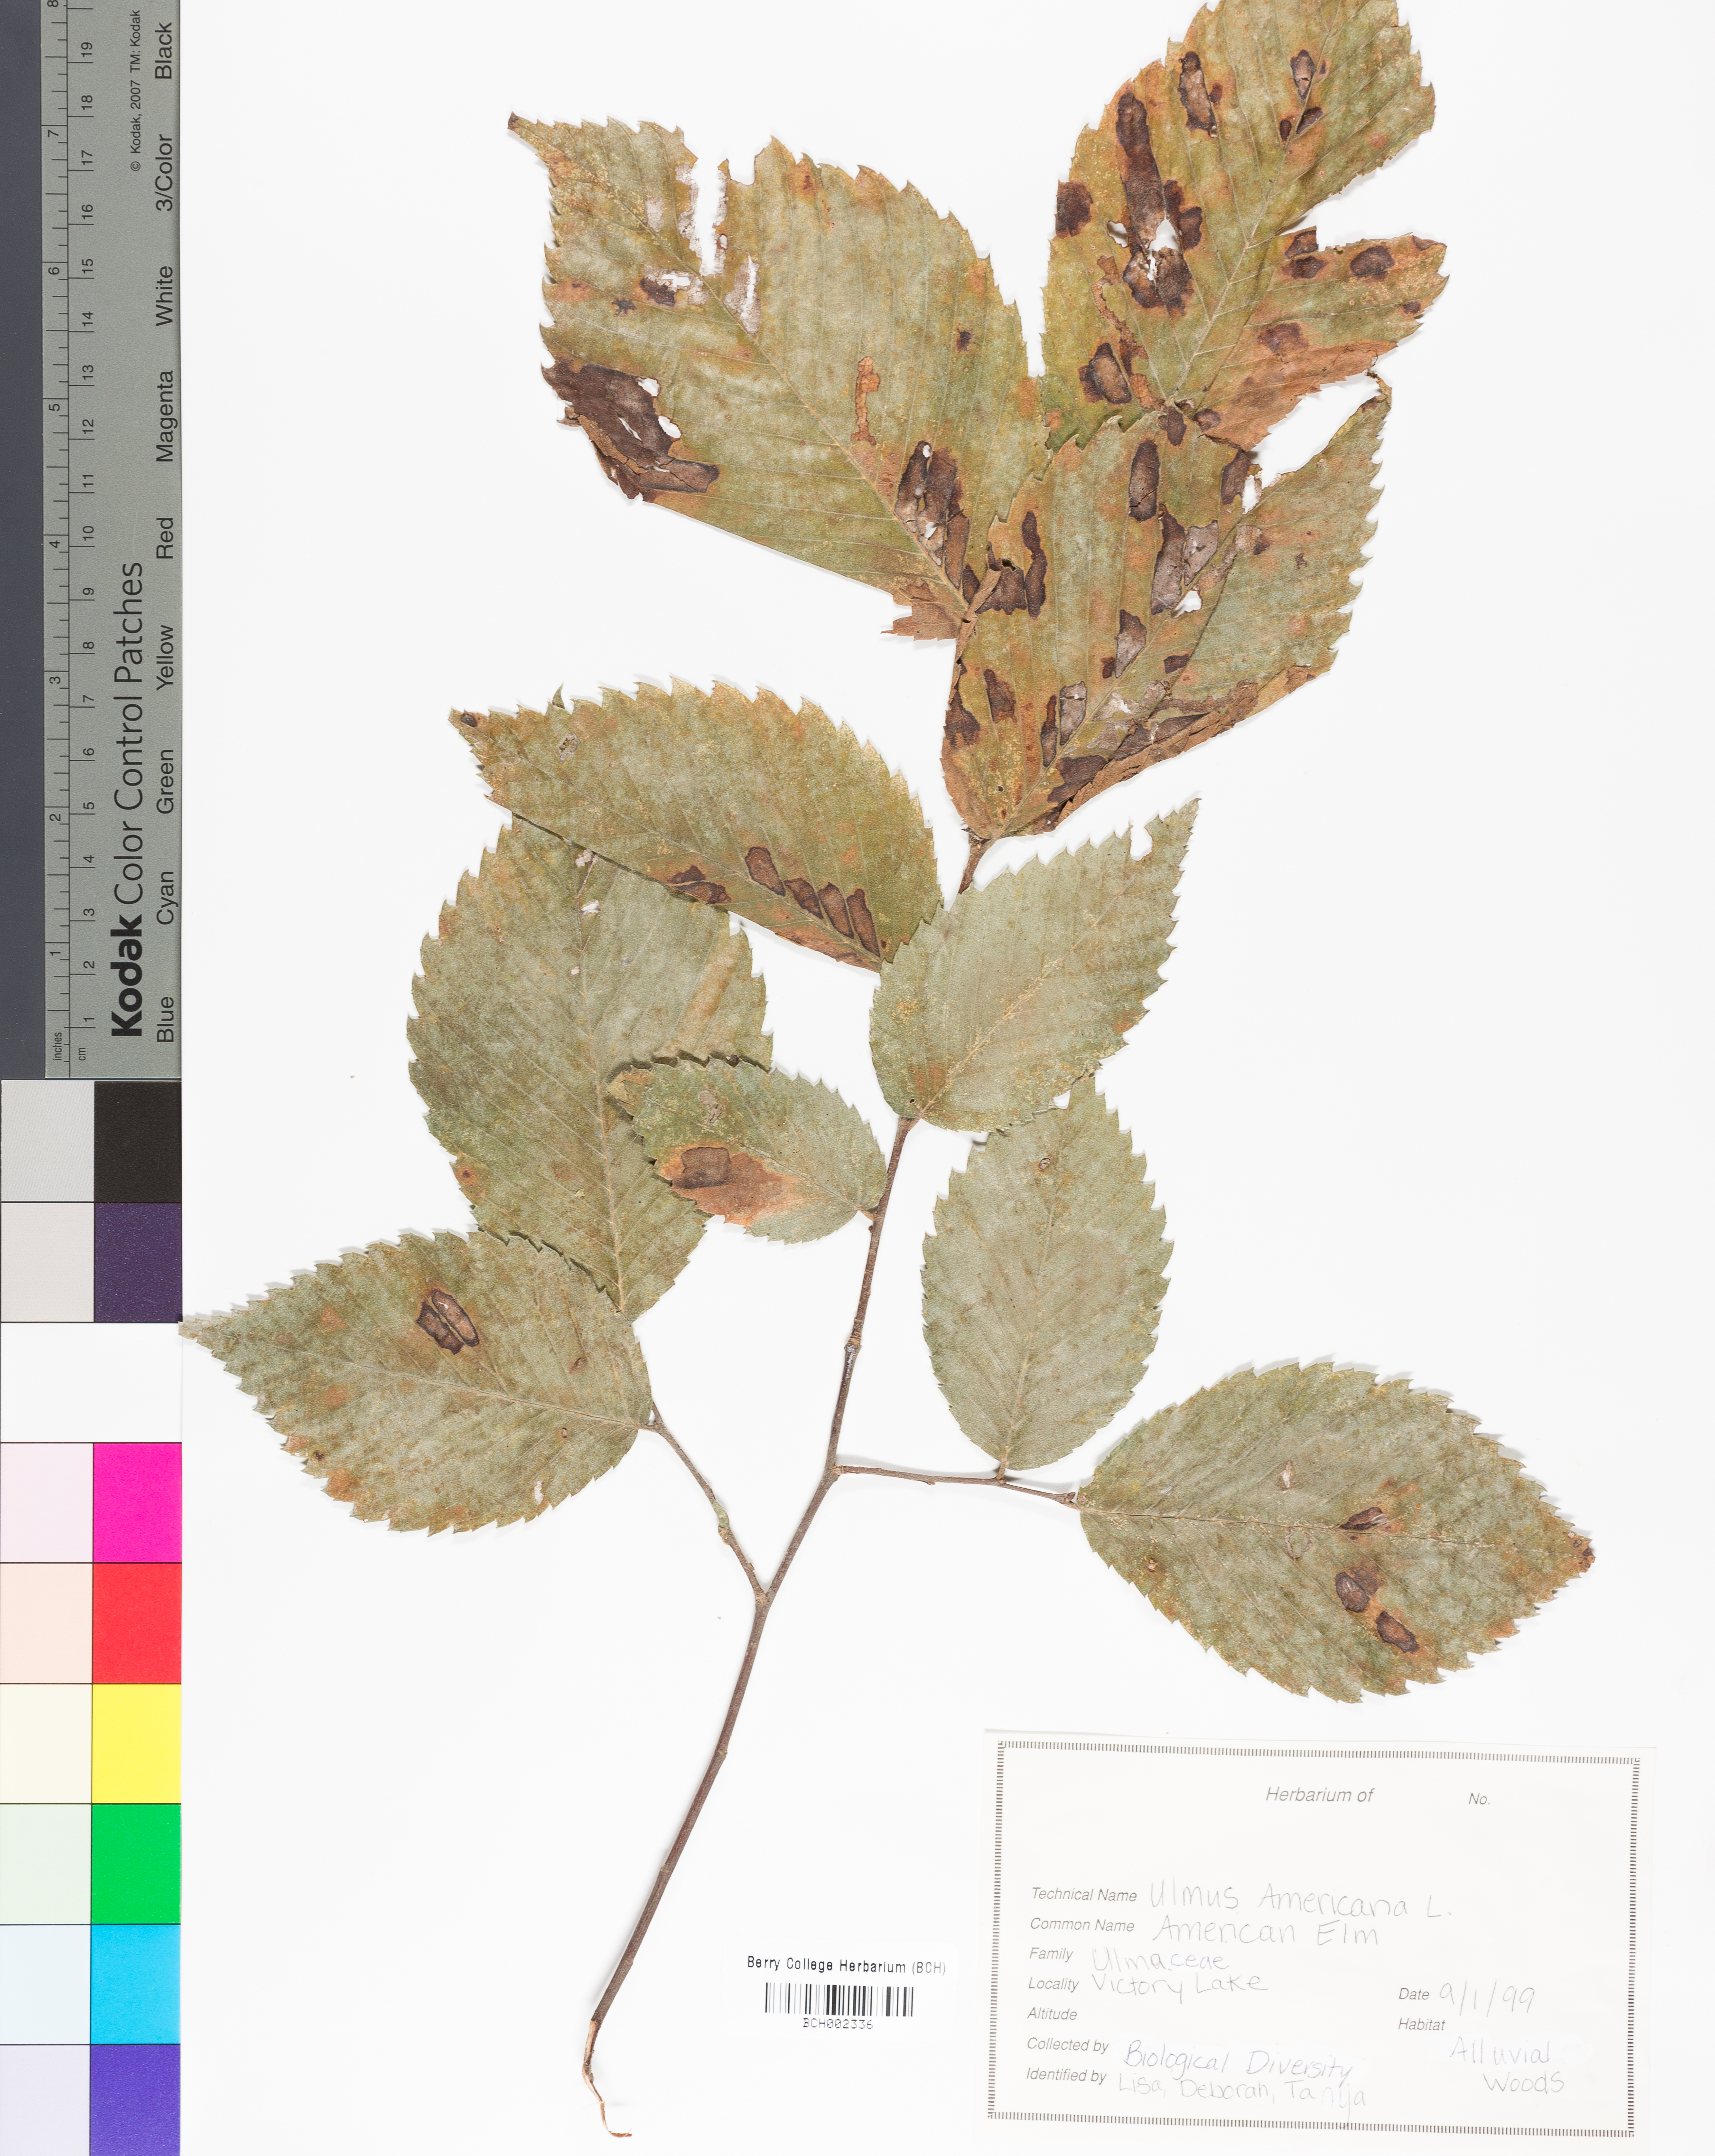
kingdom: Plantae
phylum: Tracheophyta
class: Magnoliopsida
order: Rosales
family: Ulmaceae
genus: Ulmus
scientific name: Ulmus americana
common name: American elm
